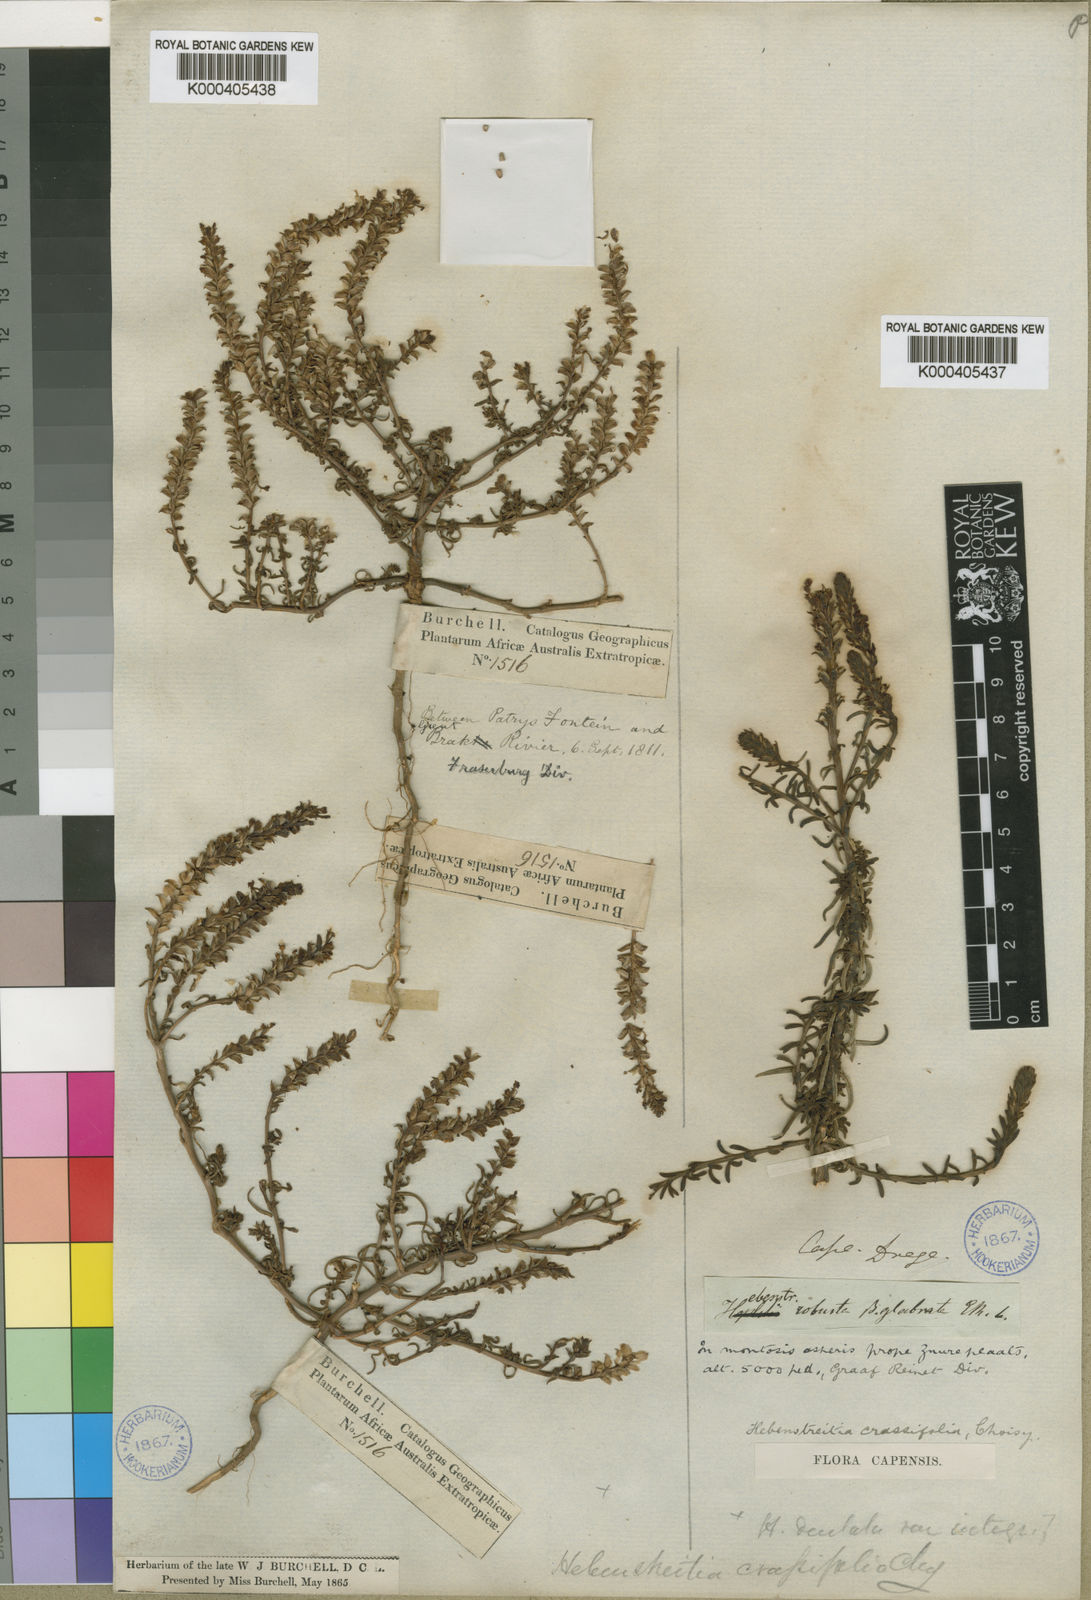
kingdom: Plantae
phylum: Tracheophyta
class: Magnoliopsida
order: Lamiales
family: Scrophulariaceae
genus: Hebenstretia
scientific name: Hebenstretia robusta
